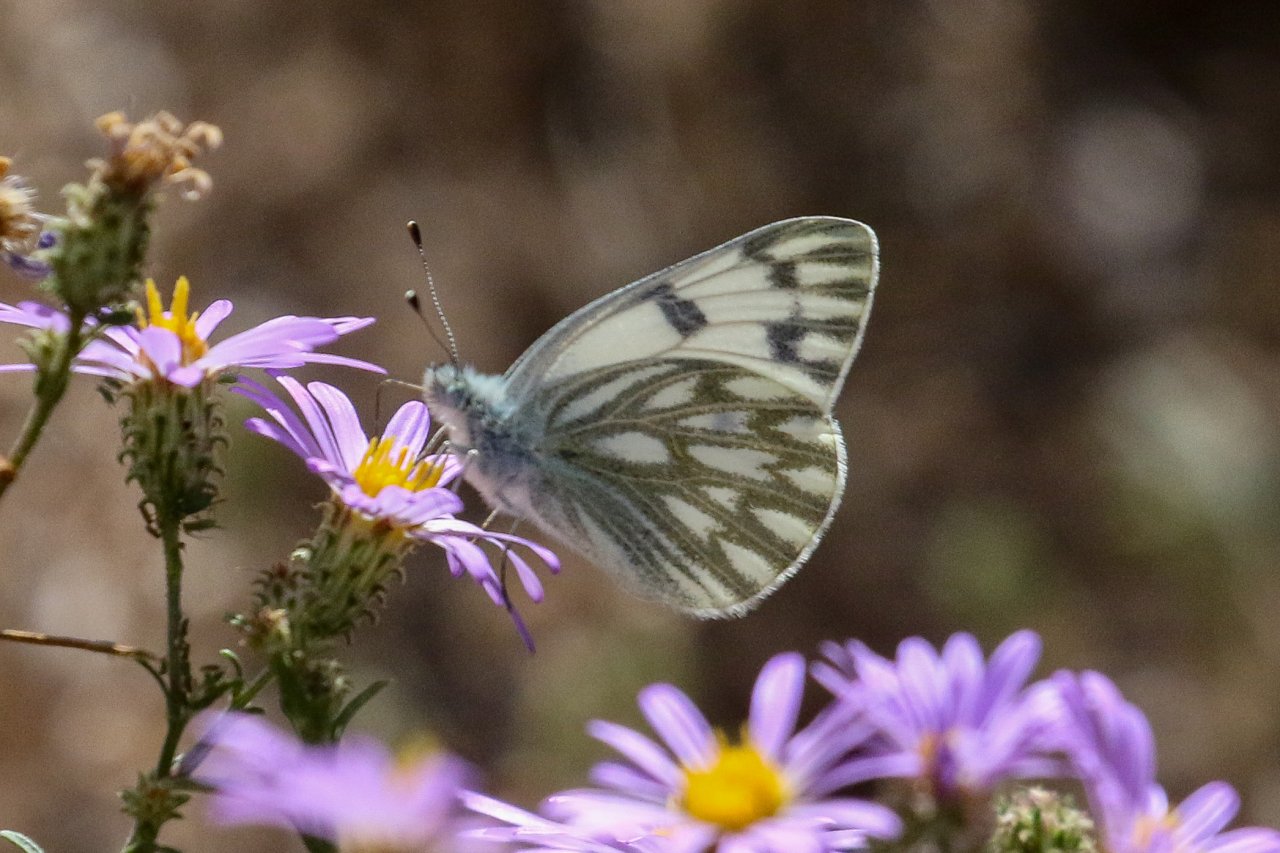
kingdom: Animalia
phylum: Arthropoda
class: Insecta
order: Lepidoptera
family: Pieridae
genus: Pontia
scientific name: Pontia protodice
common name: Checkered White
